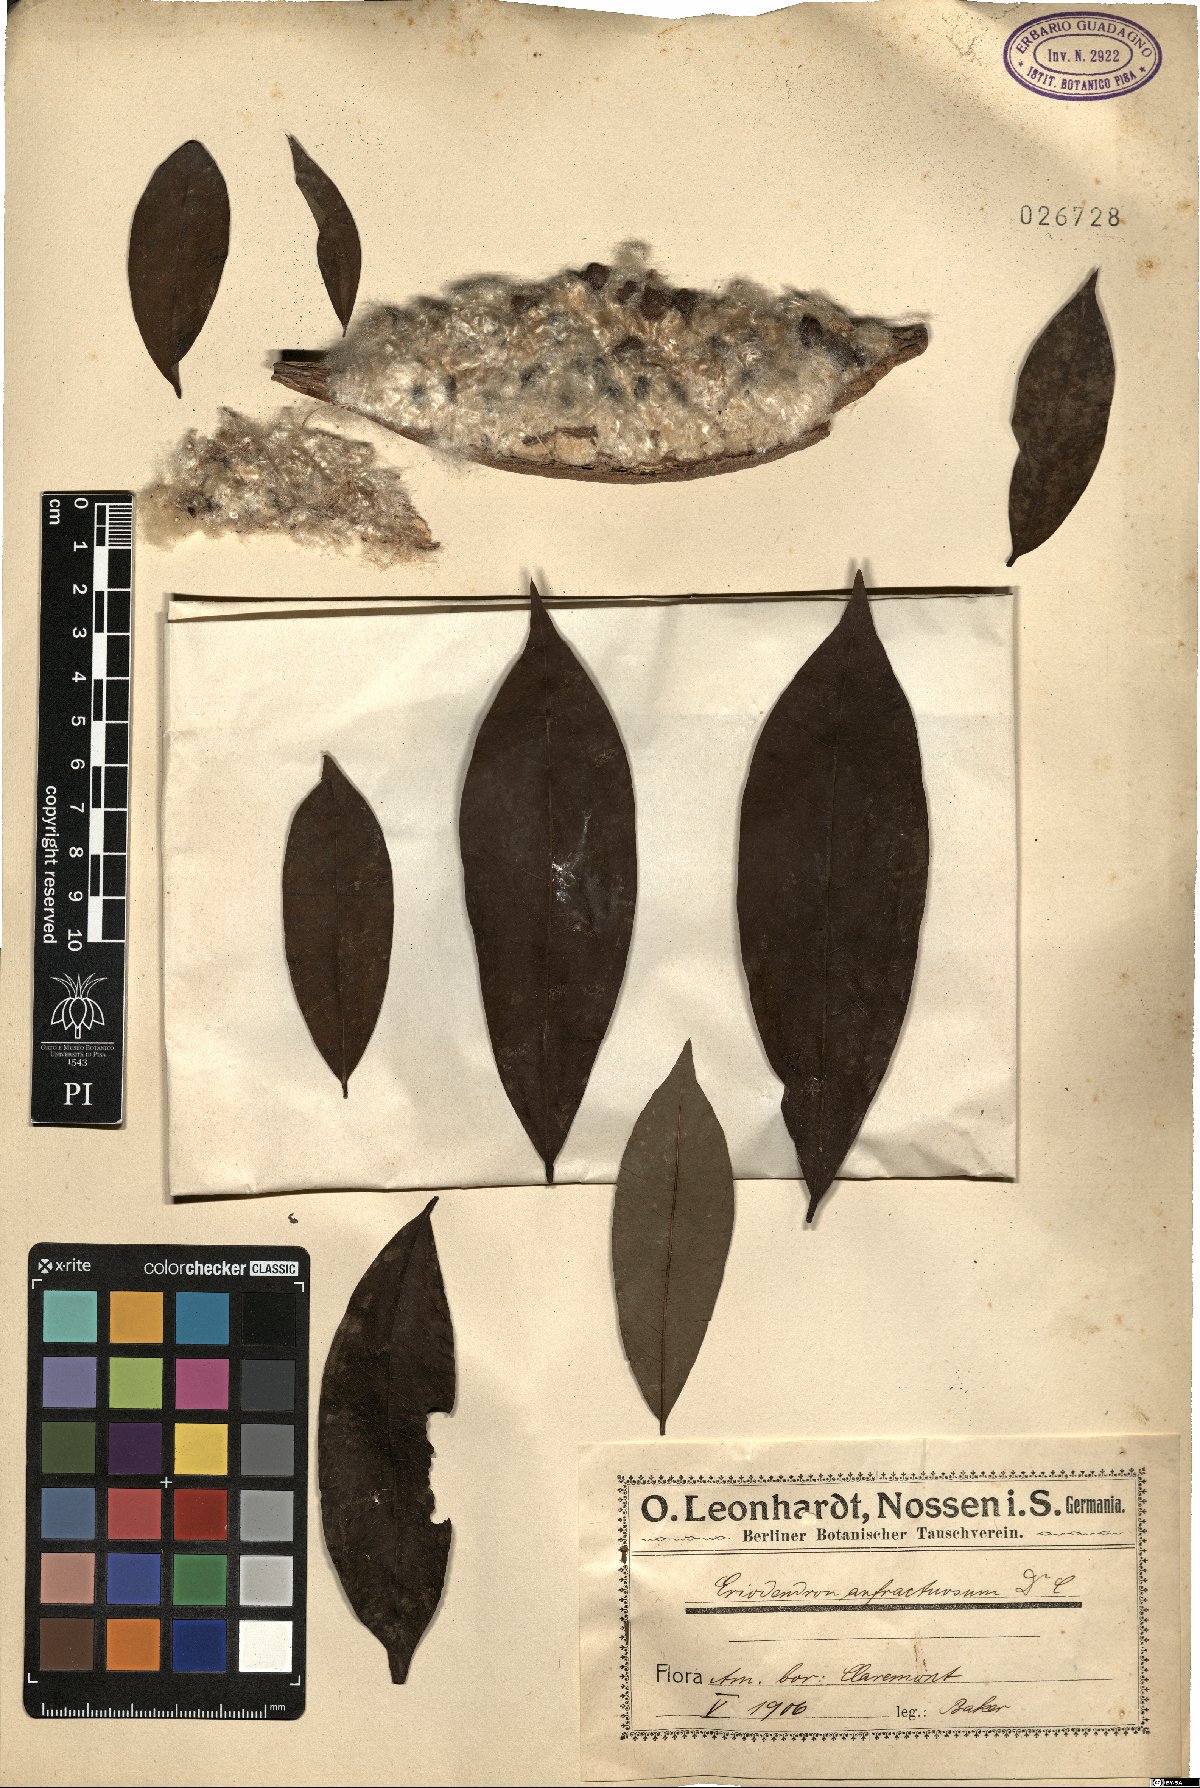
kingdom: Plantae
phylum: Tracheophyta
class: Magnoliopsida
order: Malvales
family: Malvaceae
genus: Ceiba
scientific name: Ceiba pentandra
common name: Kapok
